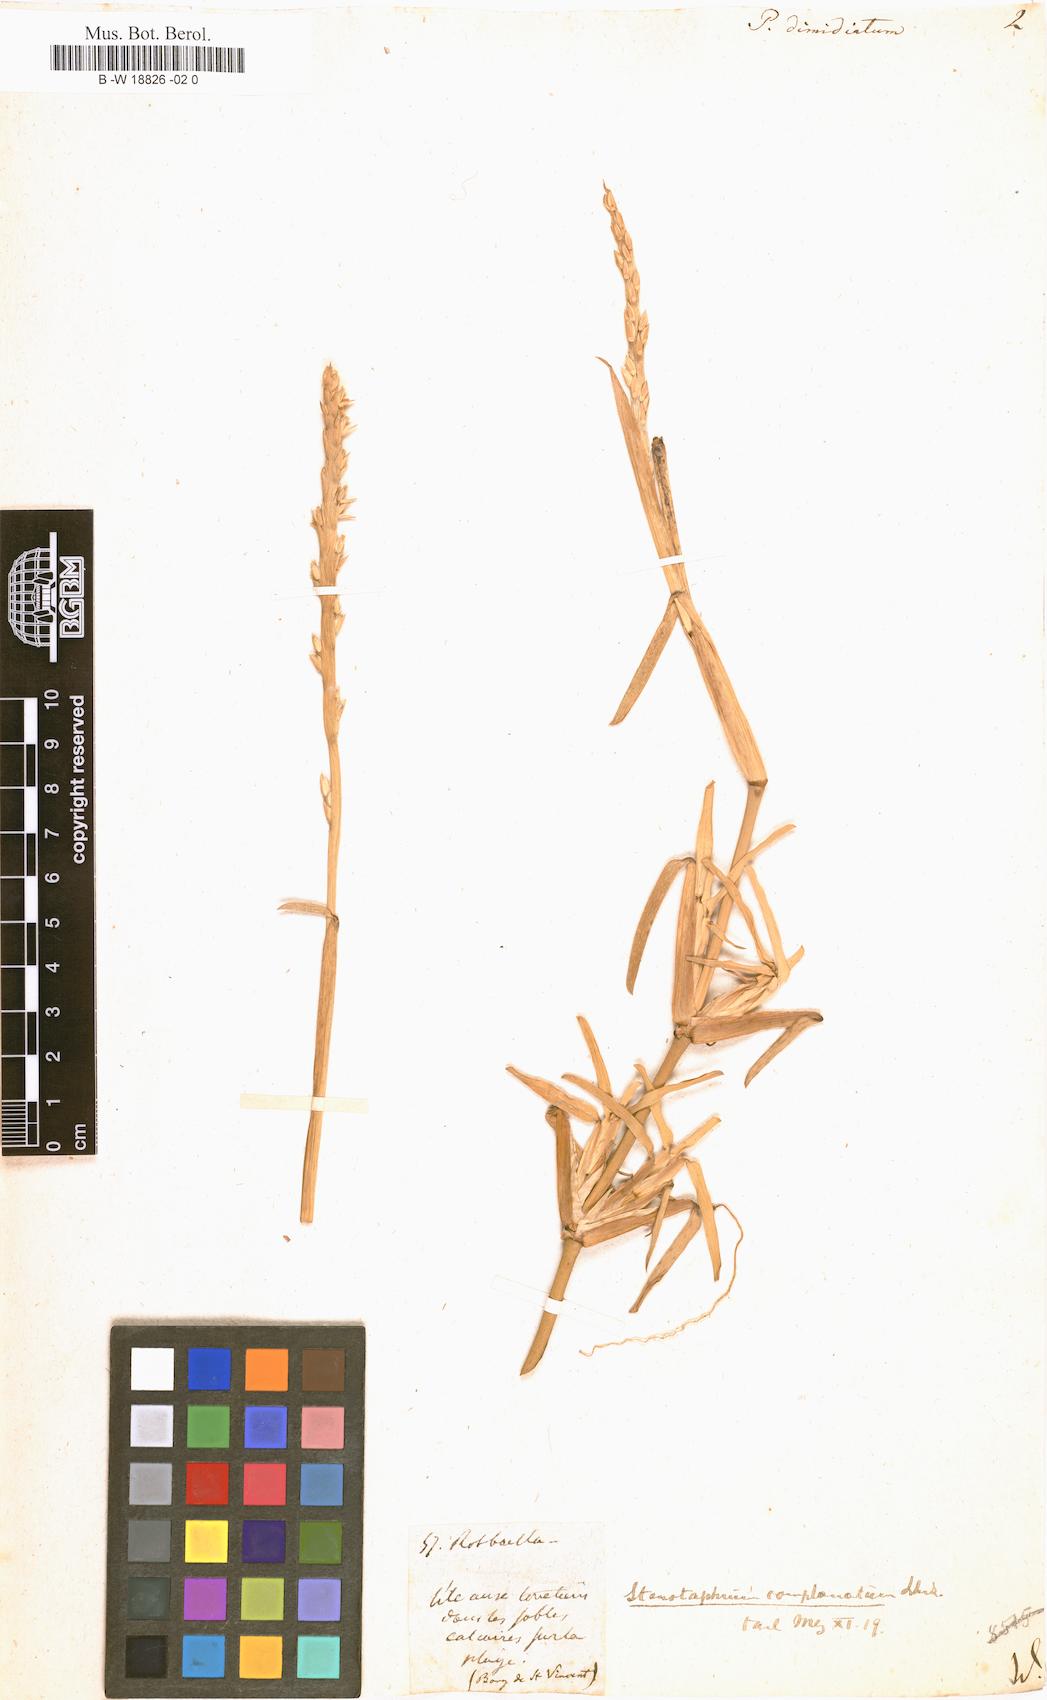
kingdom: Plantae
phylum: Tracheophyta
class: Liliopsida
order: Poales
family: Poaceae
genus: Stenotaphrum
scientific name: Stenotaphrum dimidiatum
